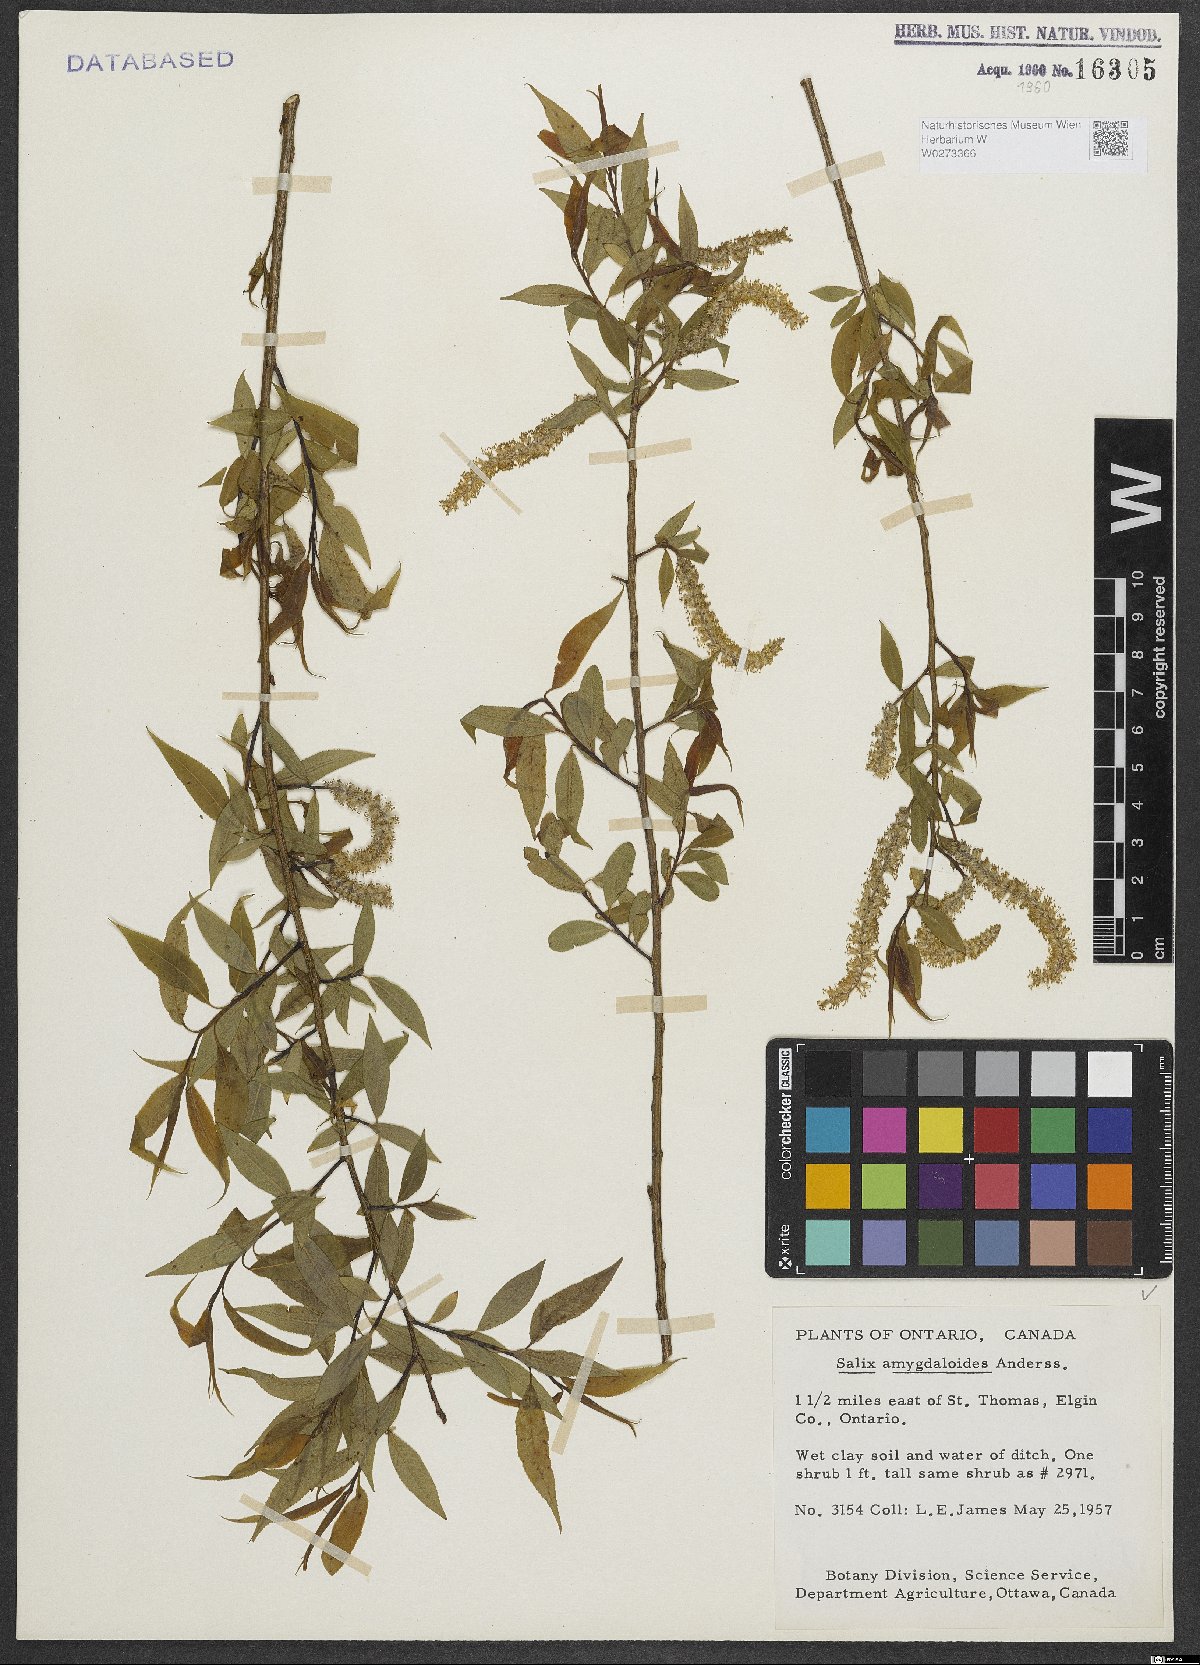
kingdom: Plantae
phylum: Tracheophyta
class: Magnoliopsida
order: Malpighiales
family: Salicaceae
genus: Salix
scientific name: Salix amygdaloides
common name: Peach leaf willow
